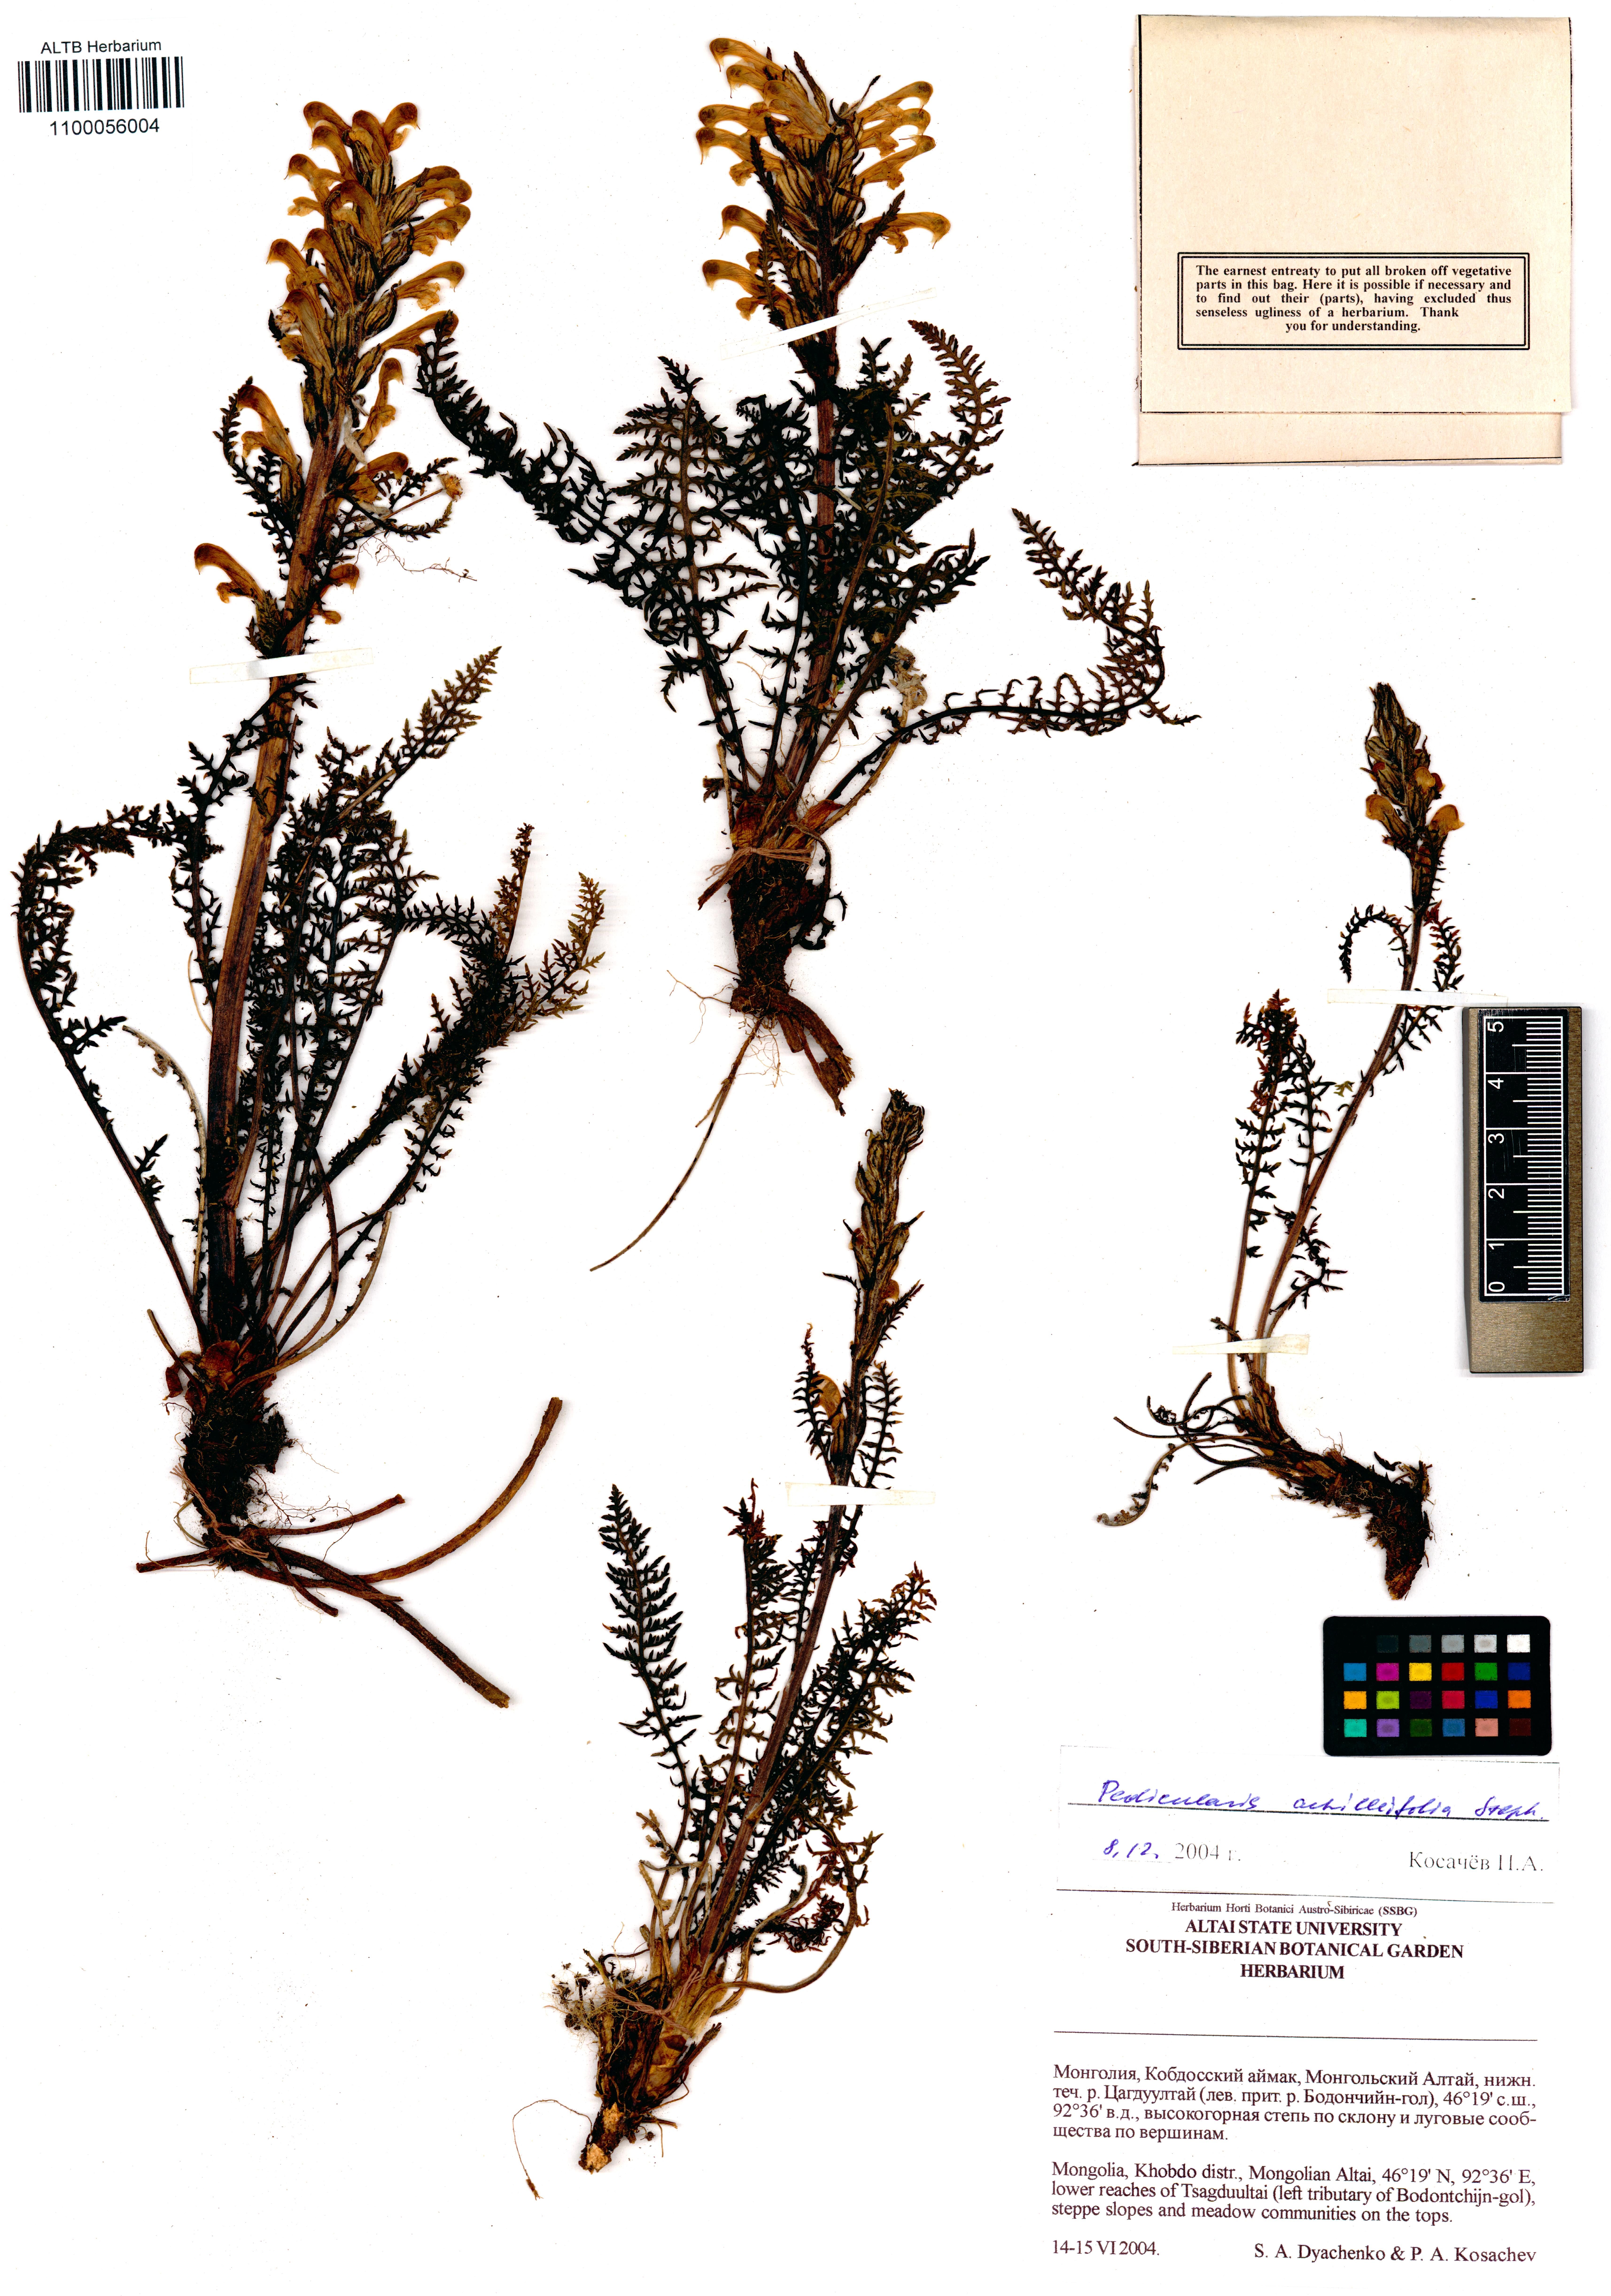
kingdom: Plantae
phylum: Tracheophyta
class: Magnoliopsida
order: Lamiales
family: Orobanchaceae
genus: Pedicularis
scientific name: Pedicularis achilleifolia
